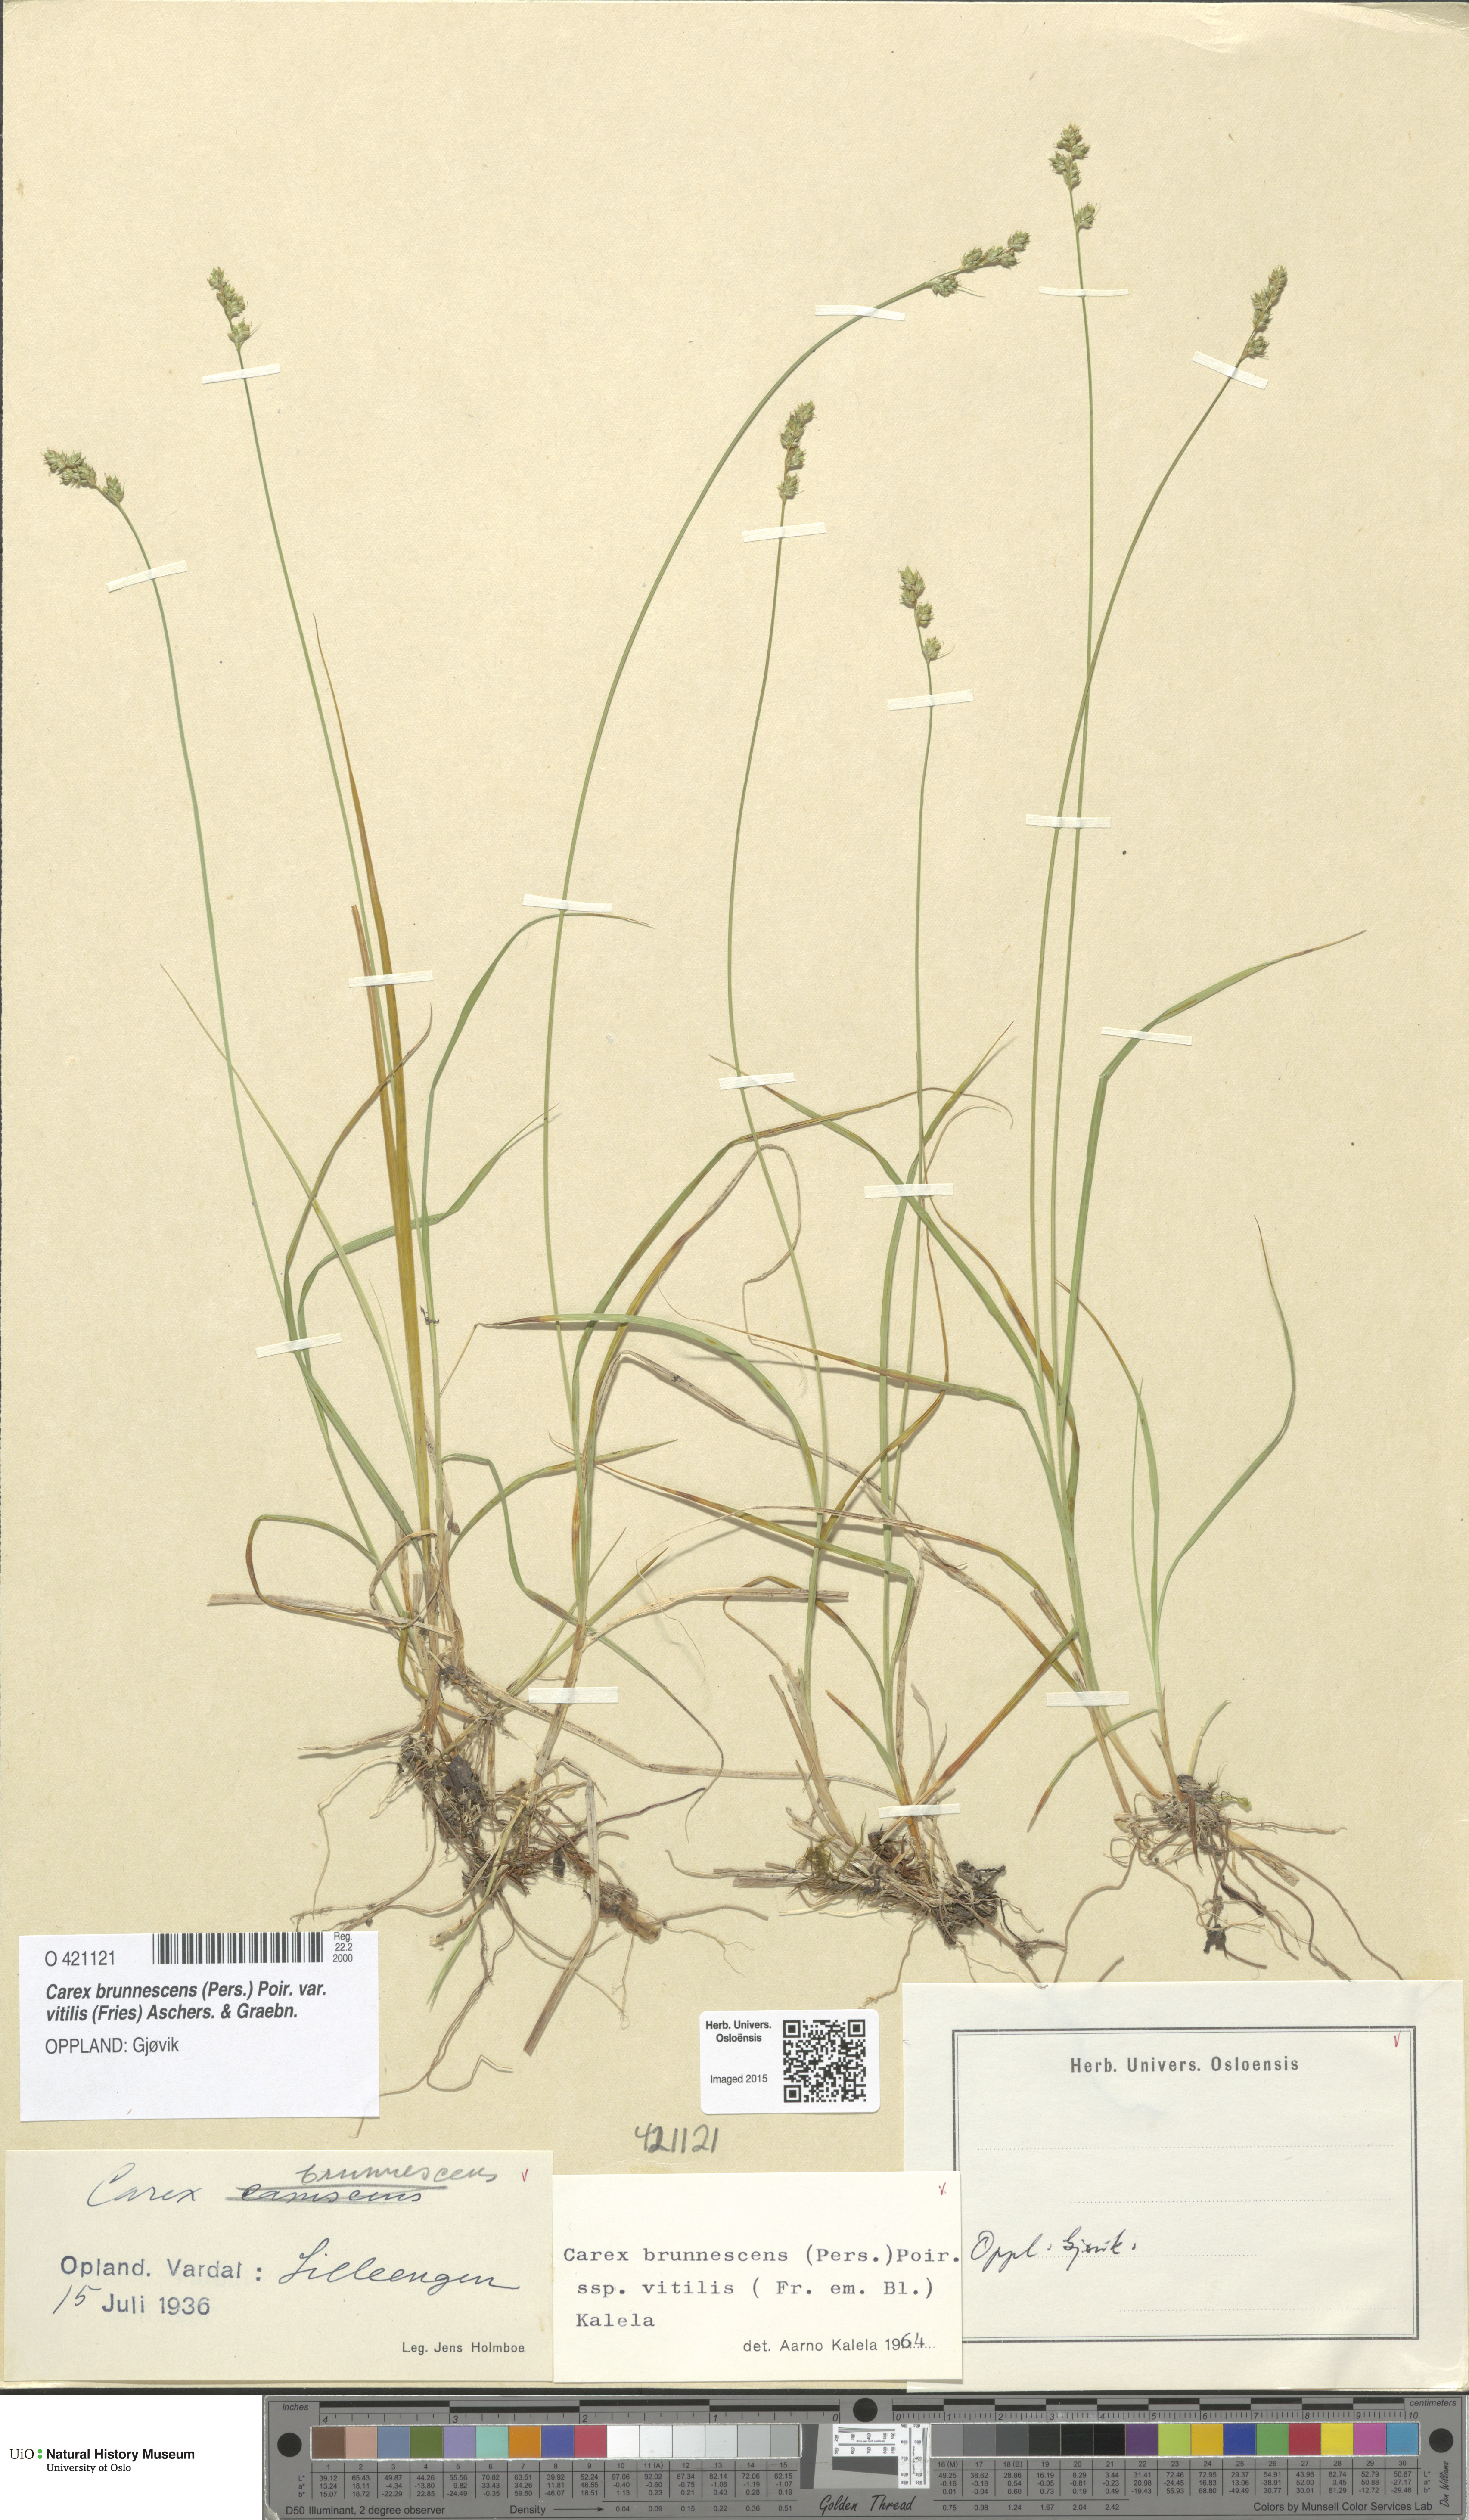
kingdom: Plantae
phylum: Tracheophyta
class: Liliopsida
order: Poales
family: Cyperaceae
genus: Carex
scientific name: Carex brunnescens
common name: Brown sedge
